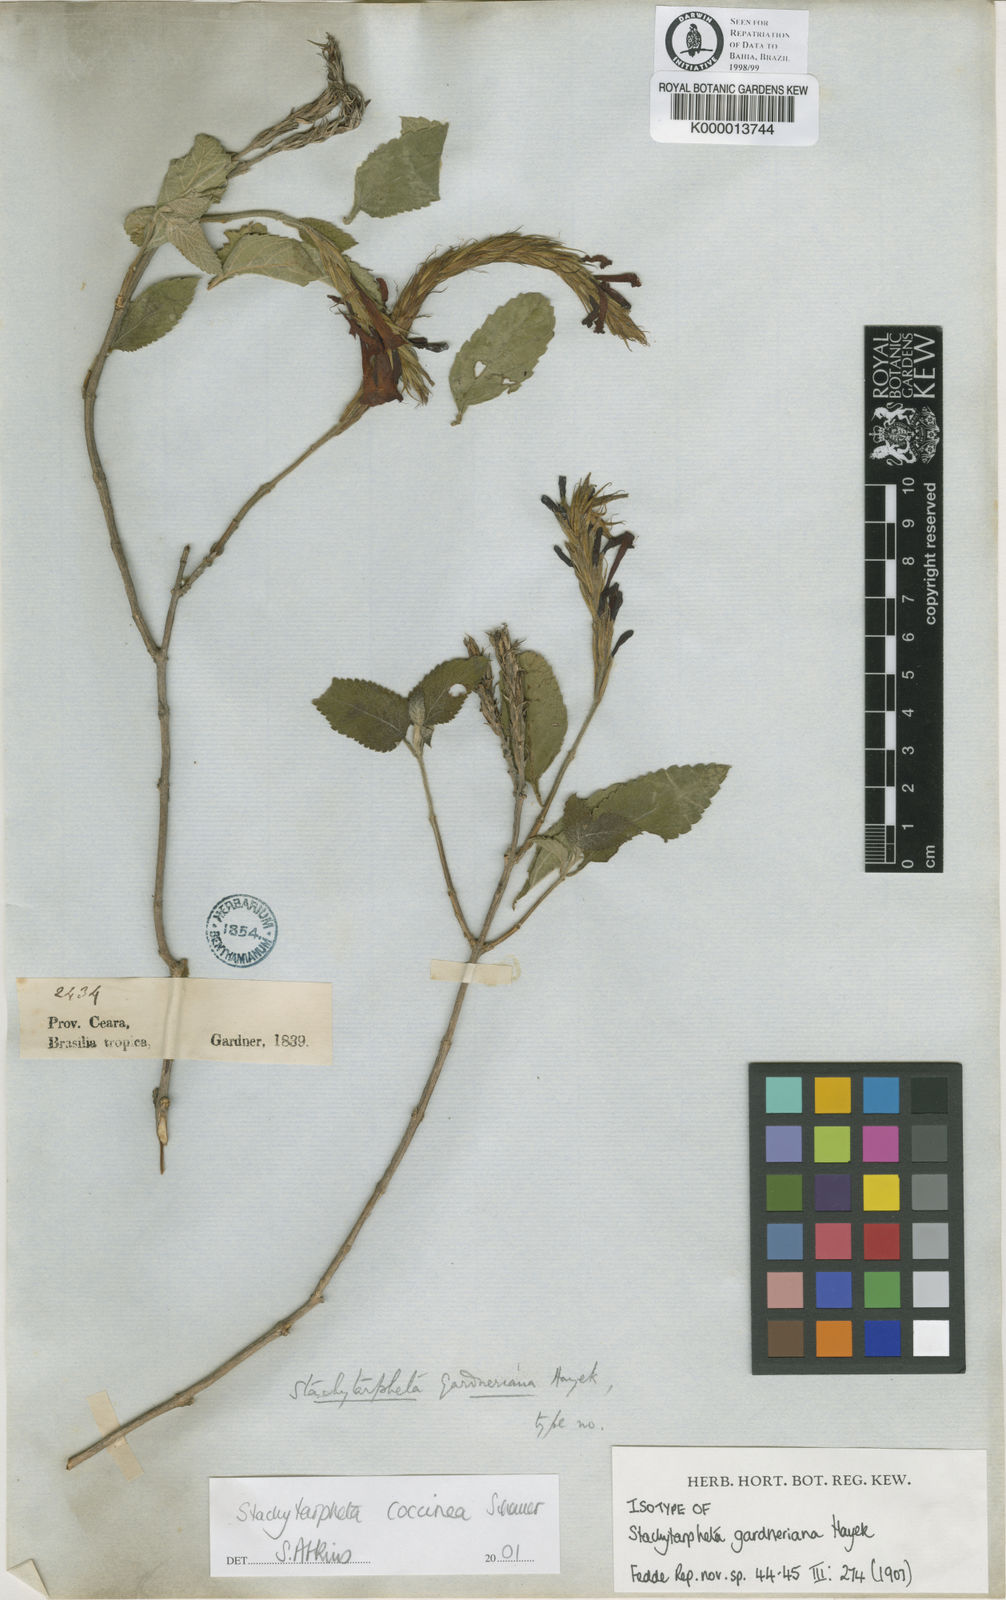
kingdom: Plantae
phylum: Tracheophyta
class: Magnoliopsida
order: Lamiales
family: Verbenaceae
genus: Stachytarpheta
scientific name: Stachytarpheta coccinea
